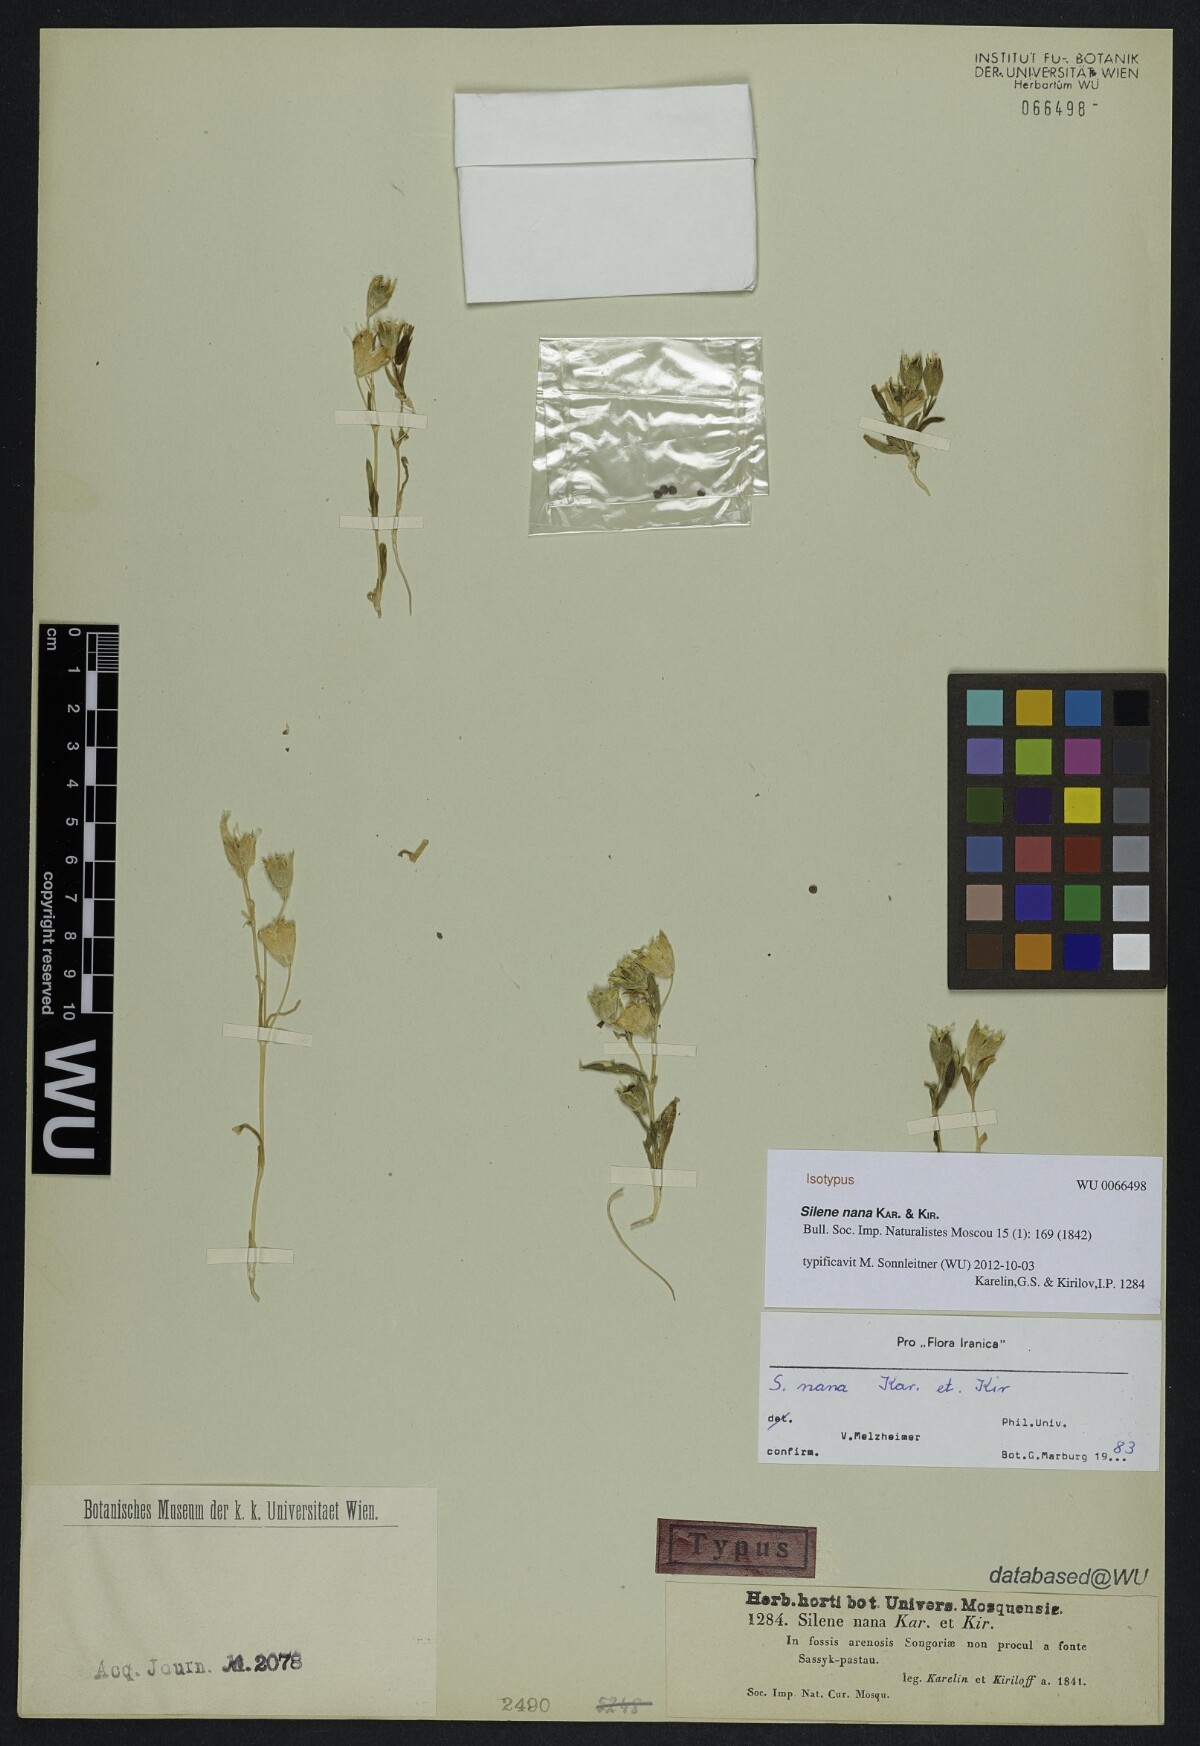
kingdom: Plantae
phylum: Tracheophyta
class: Magnoliopsida
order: Caryophyllales
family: Caryophyllaceae
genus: Silene
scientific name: Silene nana
